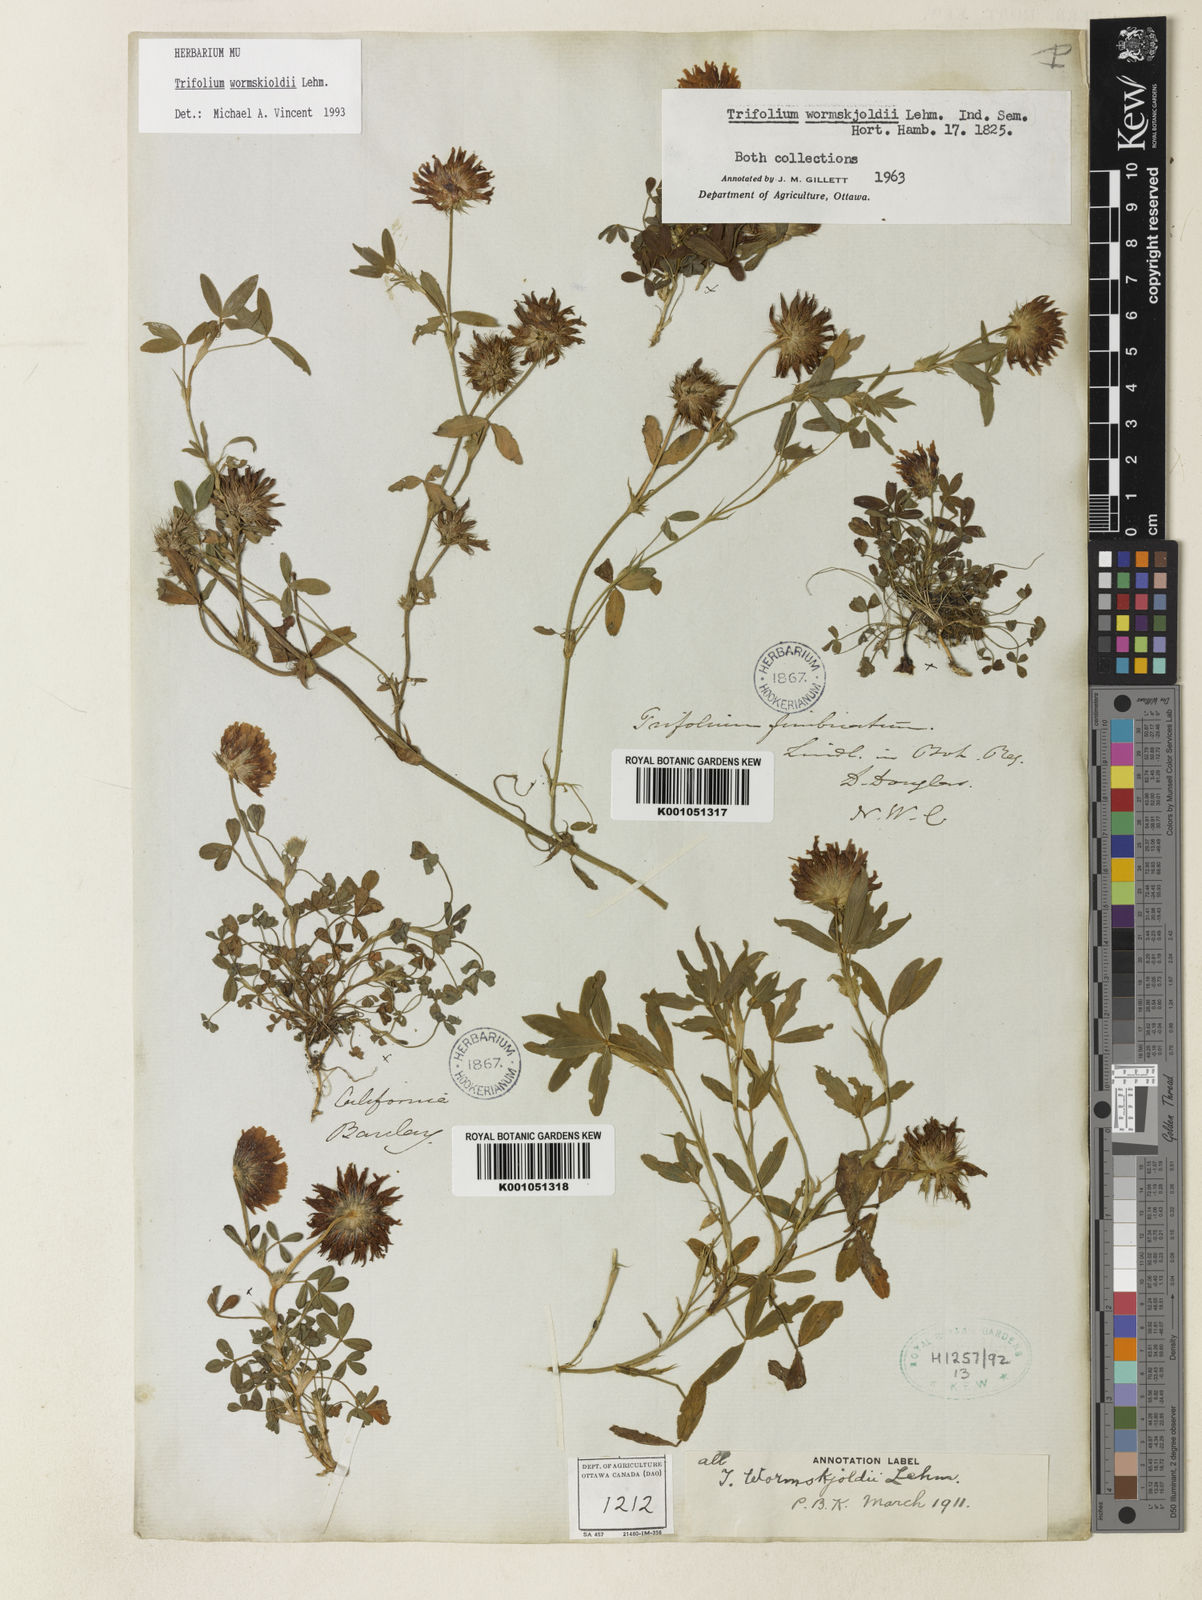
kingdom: Plantae
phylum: Tracheophyta
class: Magnoliopsida
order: Fabales
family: Fabaceae
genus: Trifolium
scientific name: Trifolium willdenovii
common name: Tomcat clover
